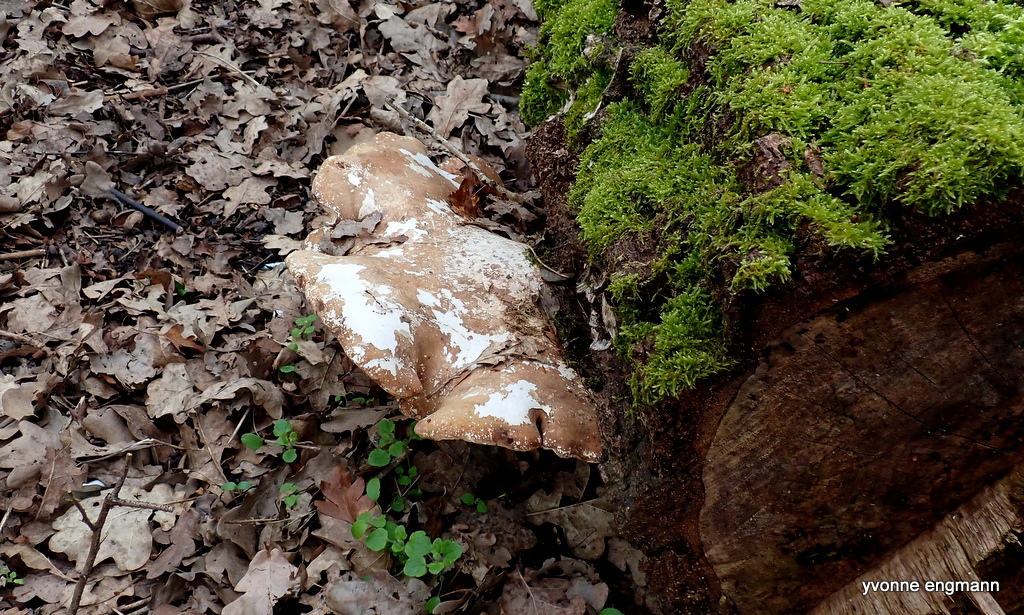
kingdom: Fungi
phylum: Basidiomycota
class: Agaricomycetes
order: Polyporales
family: Fomitopsidaceae
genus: Fomitopsis
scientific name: Fomitopsis betulina
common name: birkeporesvamp
